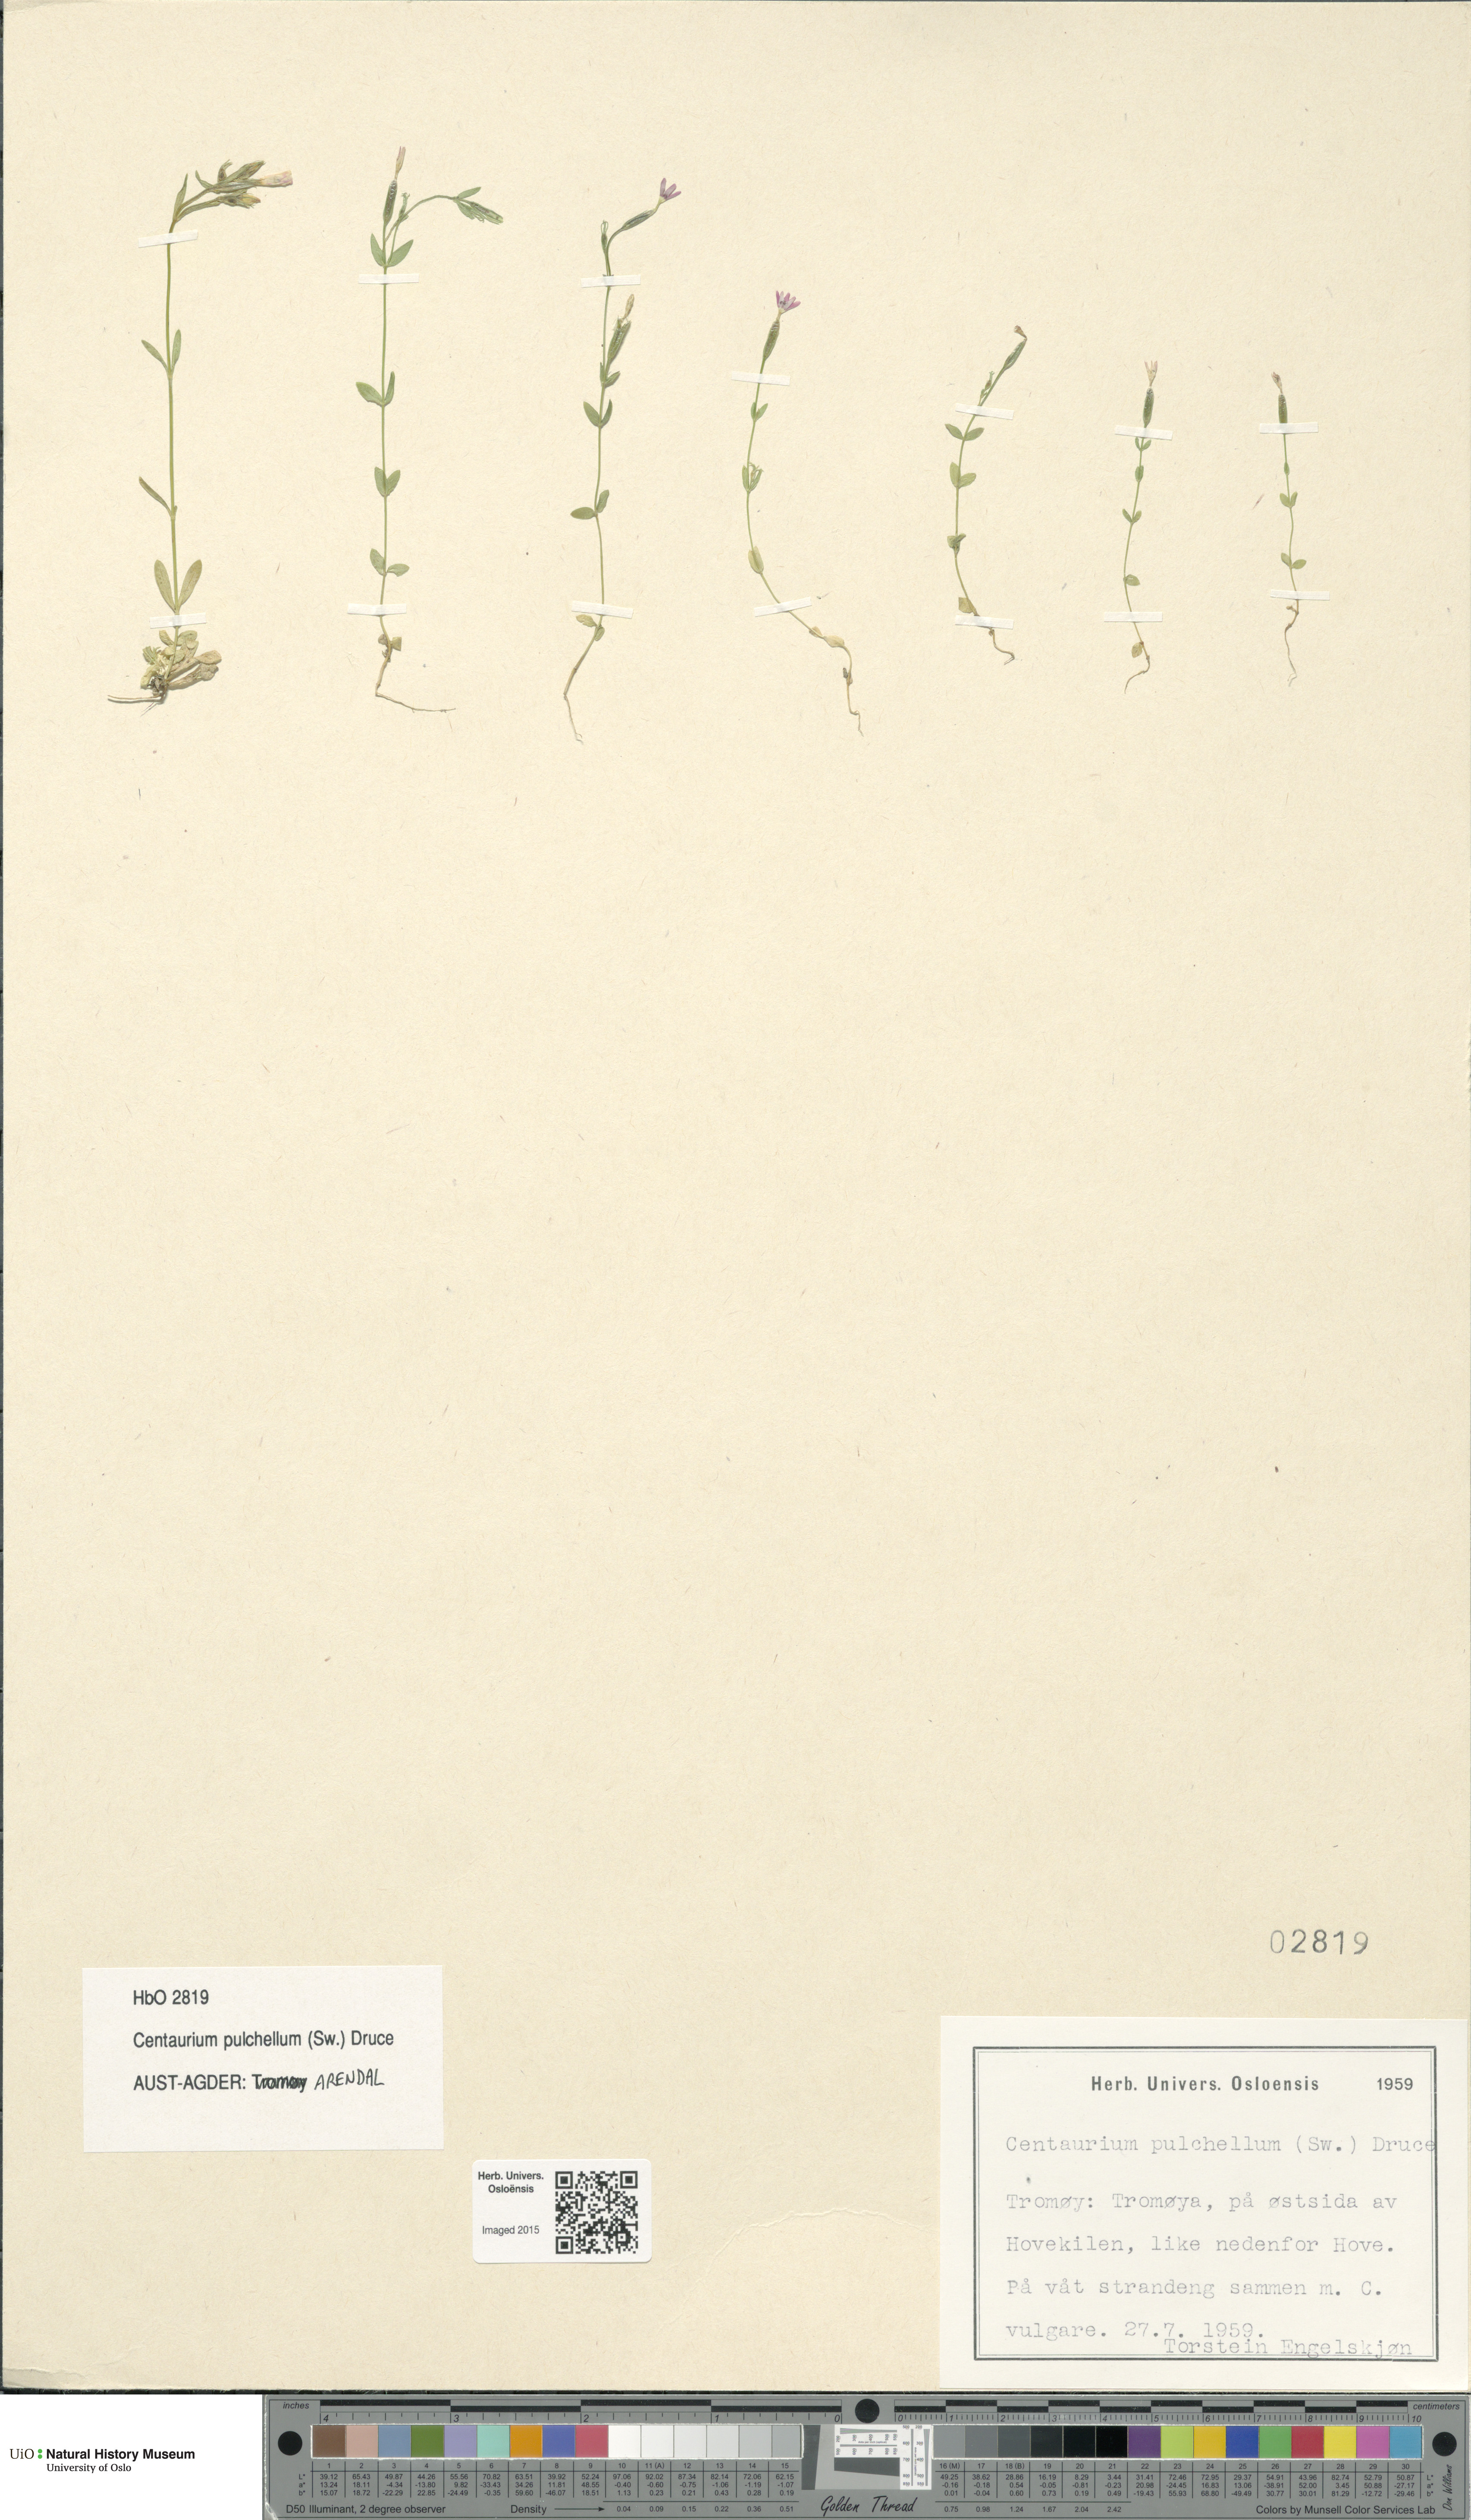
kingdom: Plantae
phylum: Tracheophyta
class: Magnoliopsida
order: Gentianales
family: Gentianaceae
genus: Centaurium
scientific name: Centaurium pulchellum
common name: Lesser centaury
